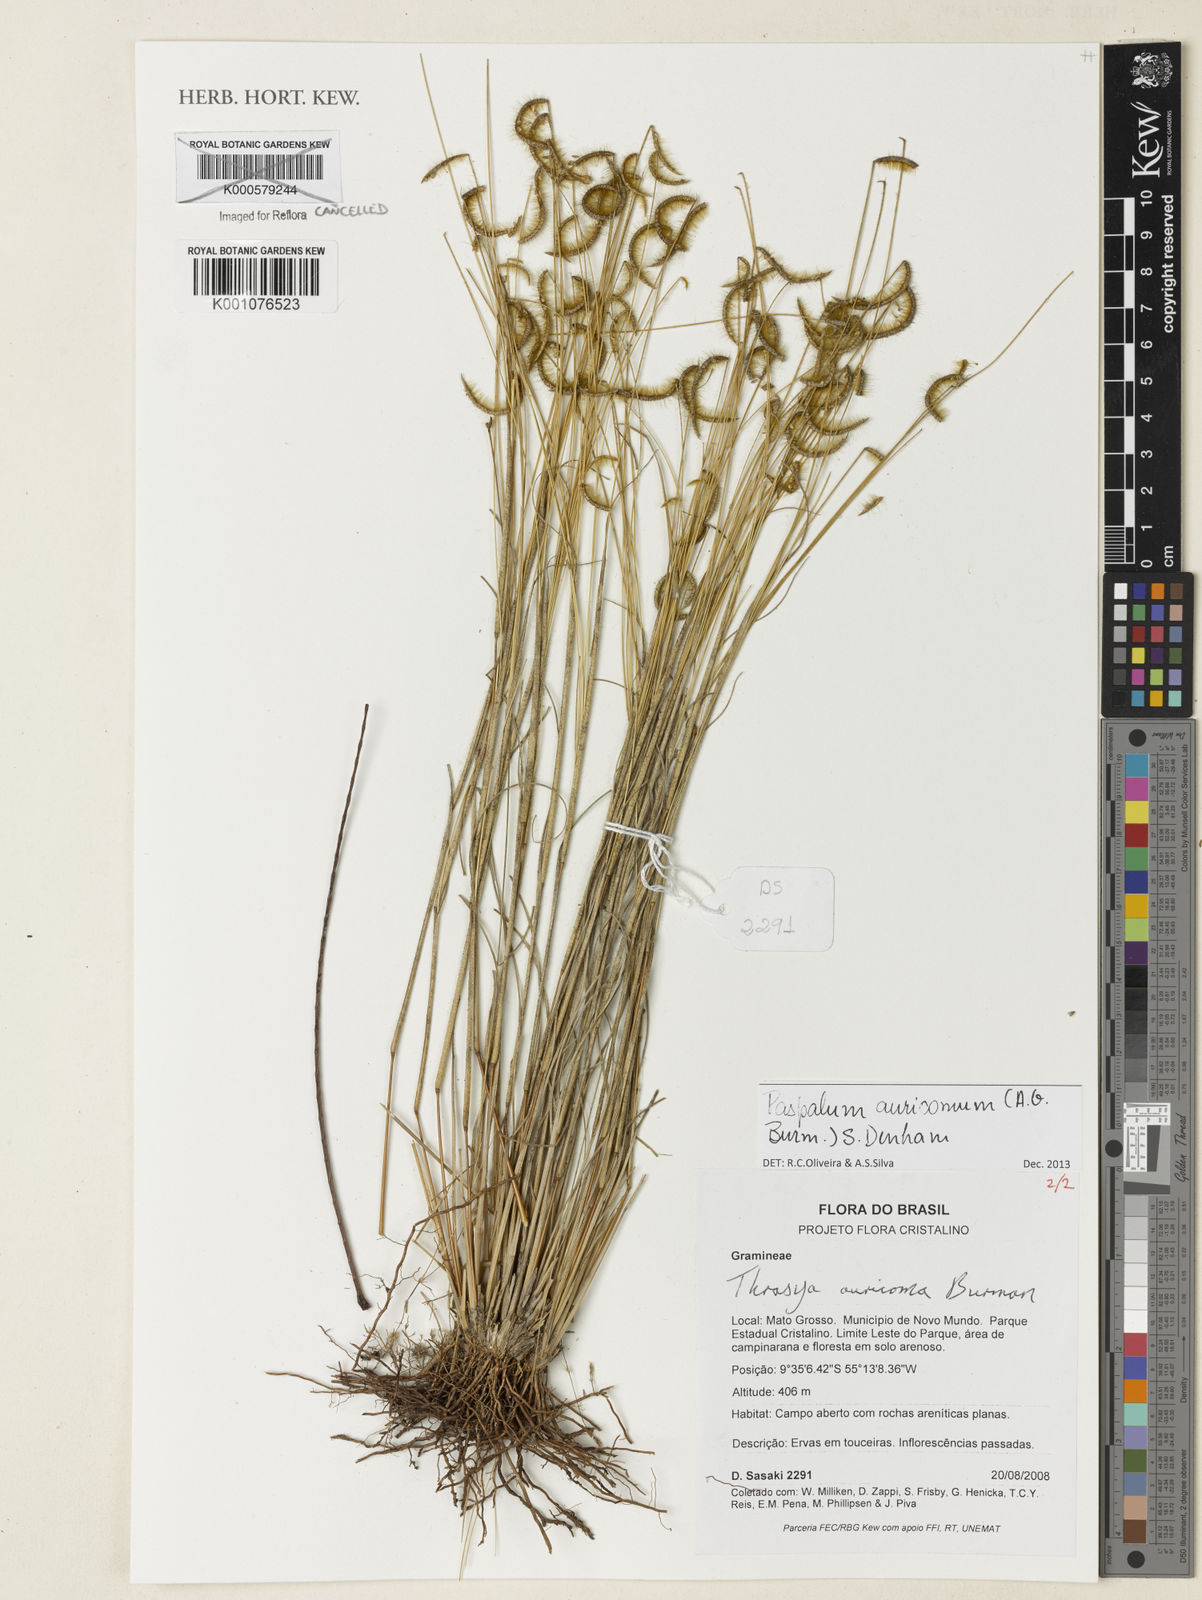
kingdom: Plantae
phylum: Tracheophyta
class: Liliopsida
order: Poales
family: Poaceae
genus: Paspalum
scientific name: Paspalum auricomum
